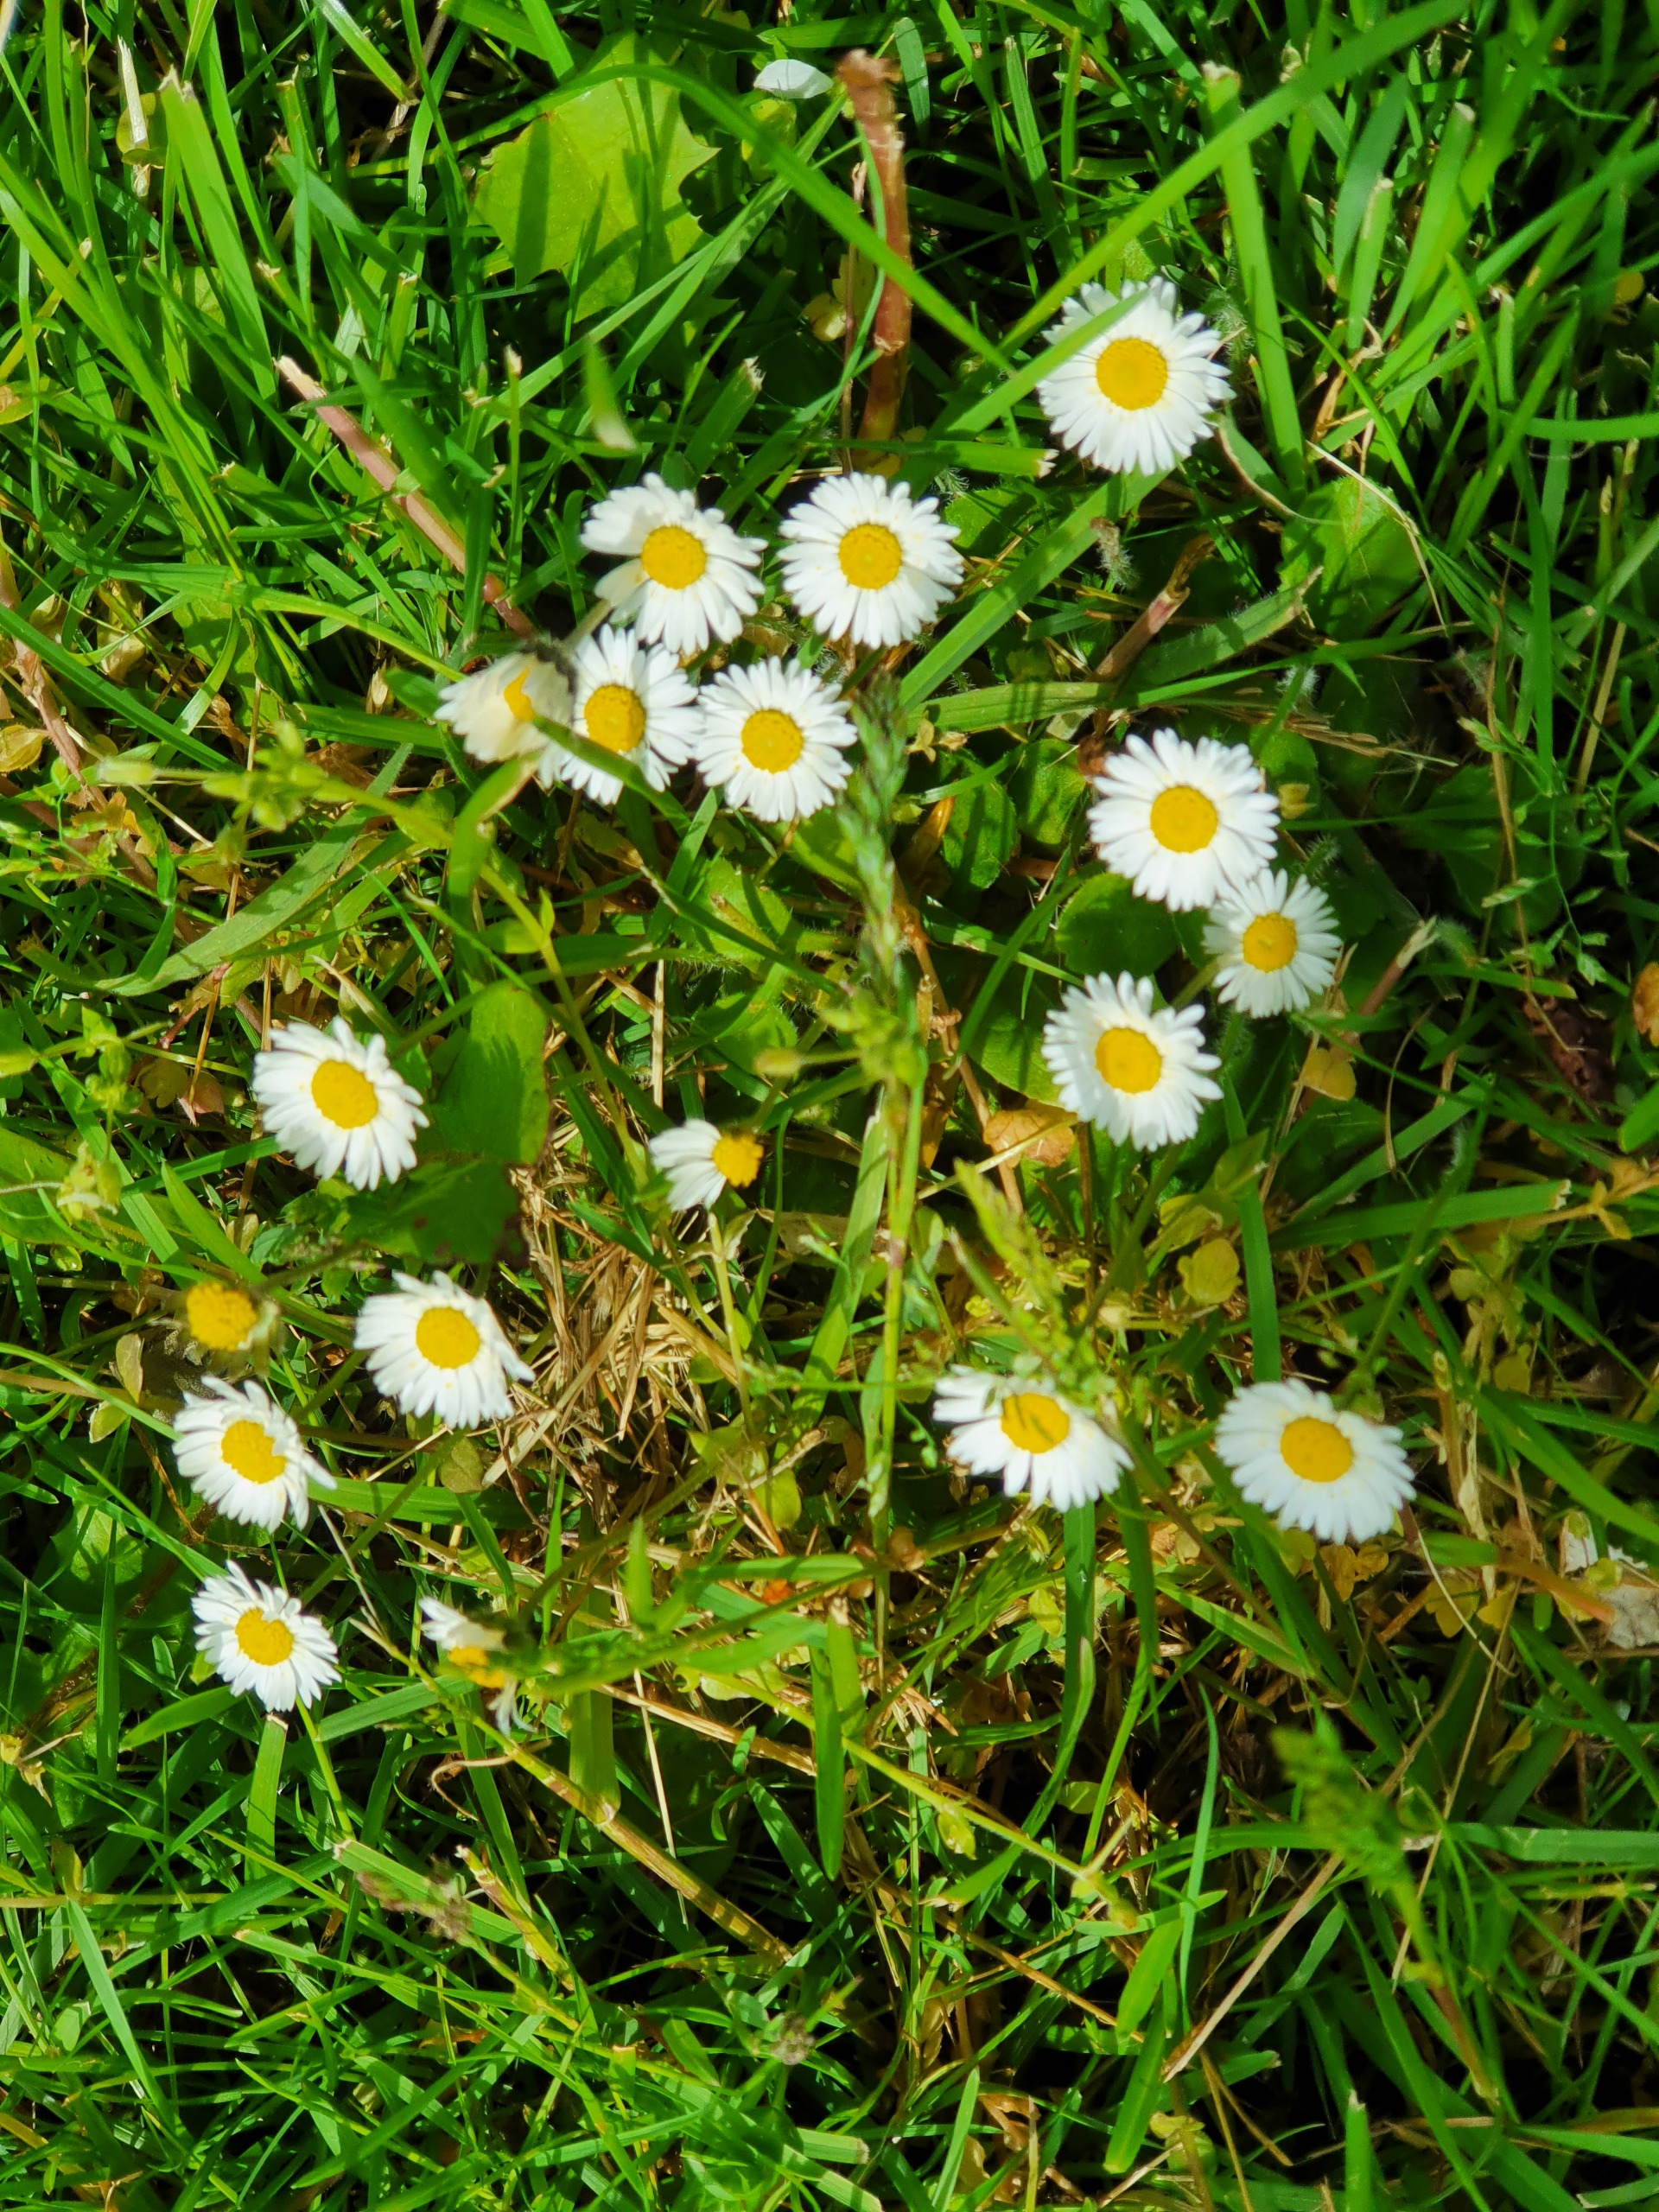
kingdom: Plantae
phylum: Tracheophyta
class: Magnoliopsida
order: Asterales
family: Asteraceae
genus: Bellis
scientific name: Bellis perennis
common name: Tusindfryd
